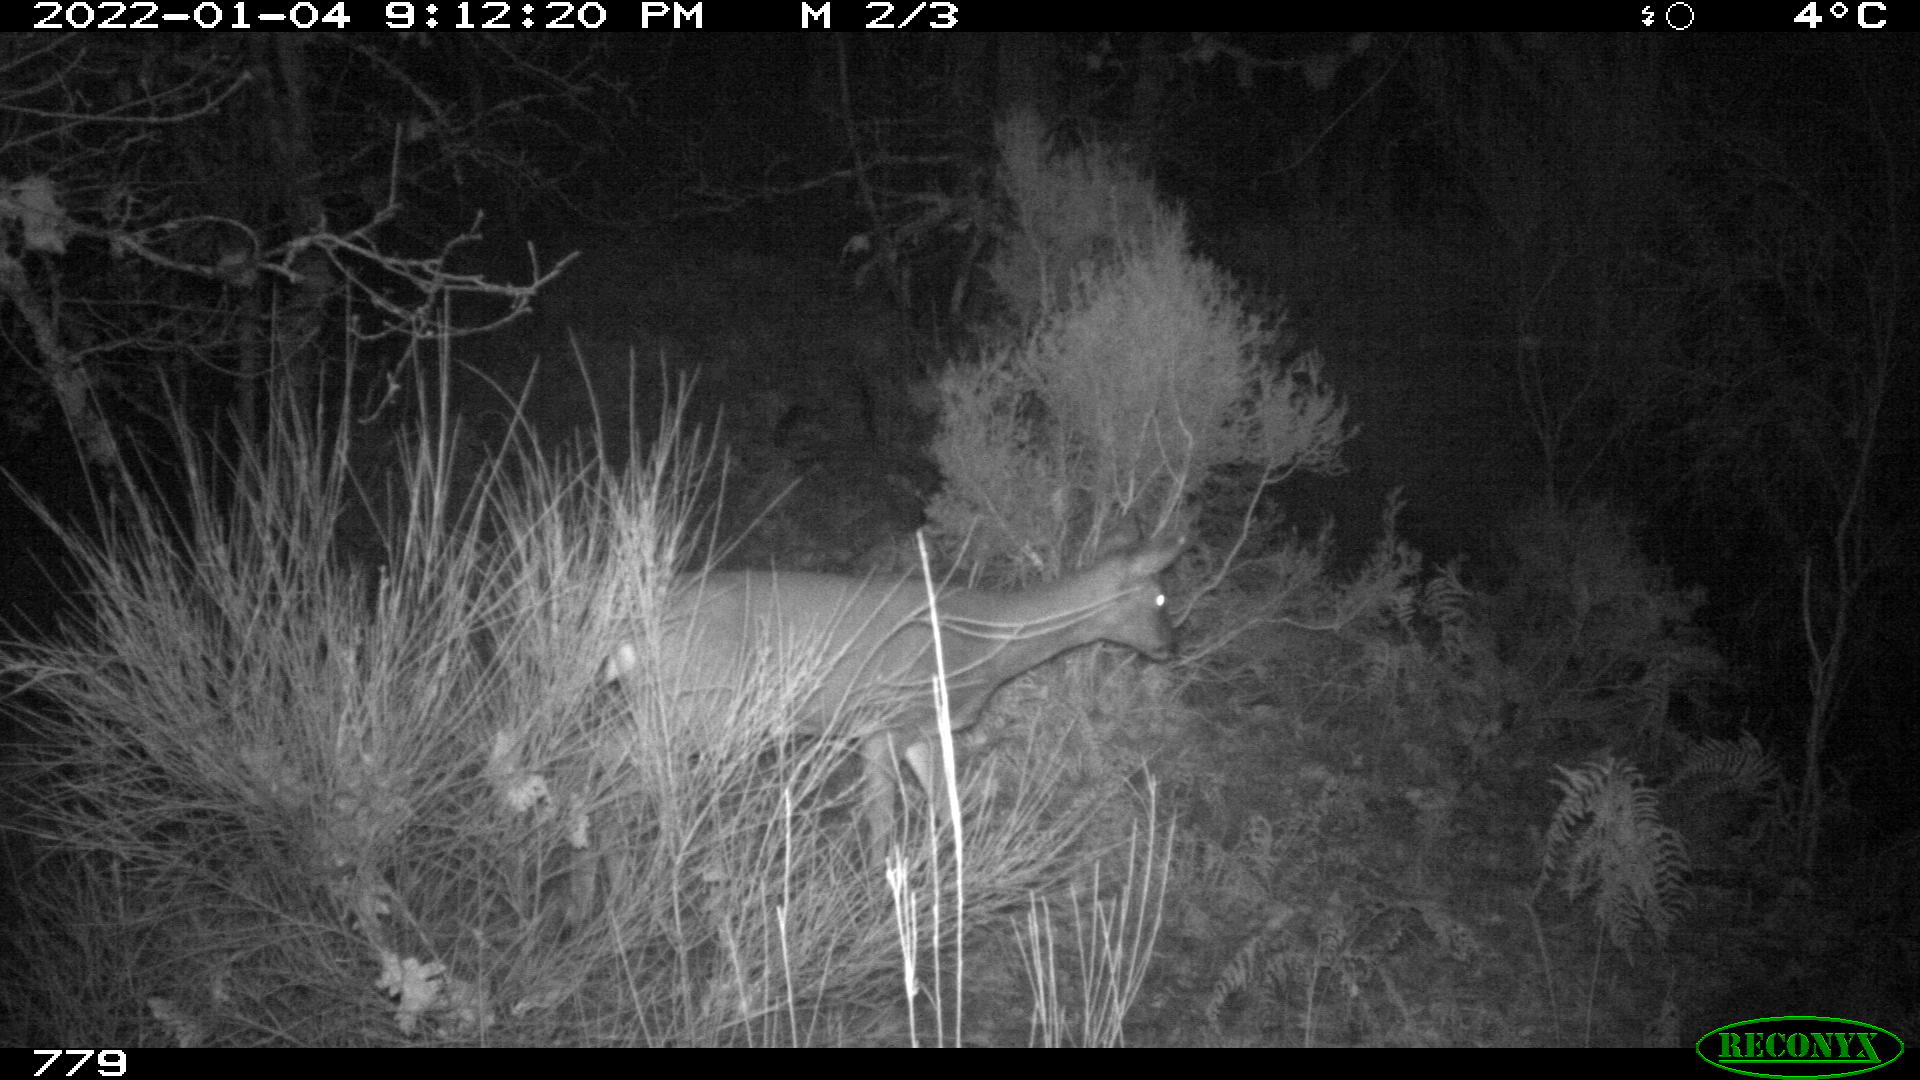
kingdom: Animalia
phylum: Chordata
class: Mammalia
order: Artiodactyla
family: Cervidae
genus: Capreolus
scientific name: Capreolus capreolus
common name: Western roe deer
